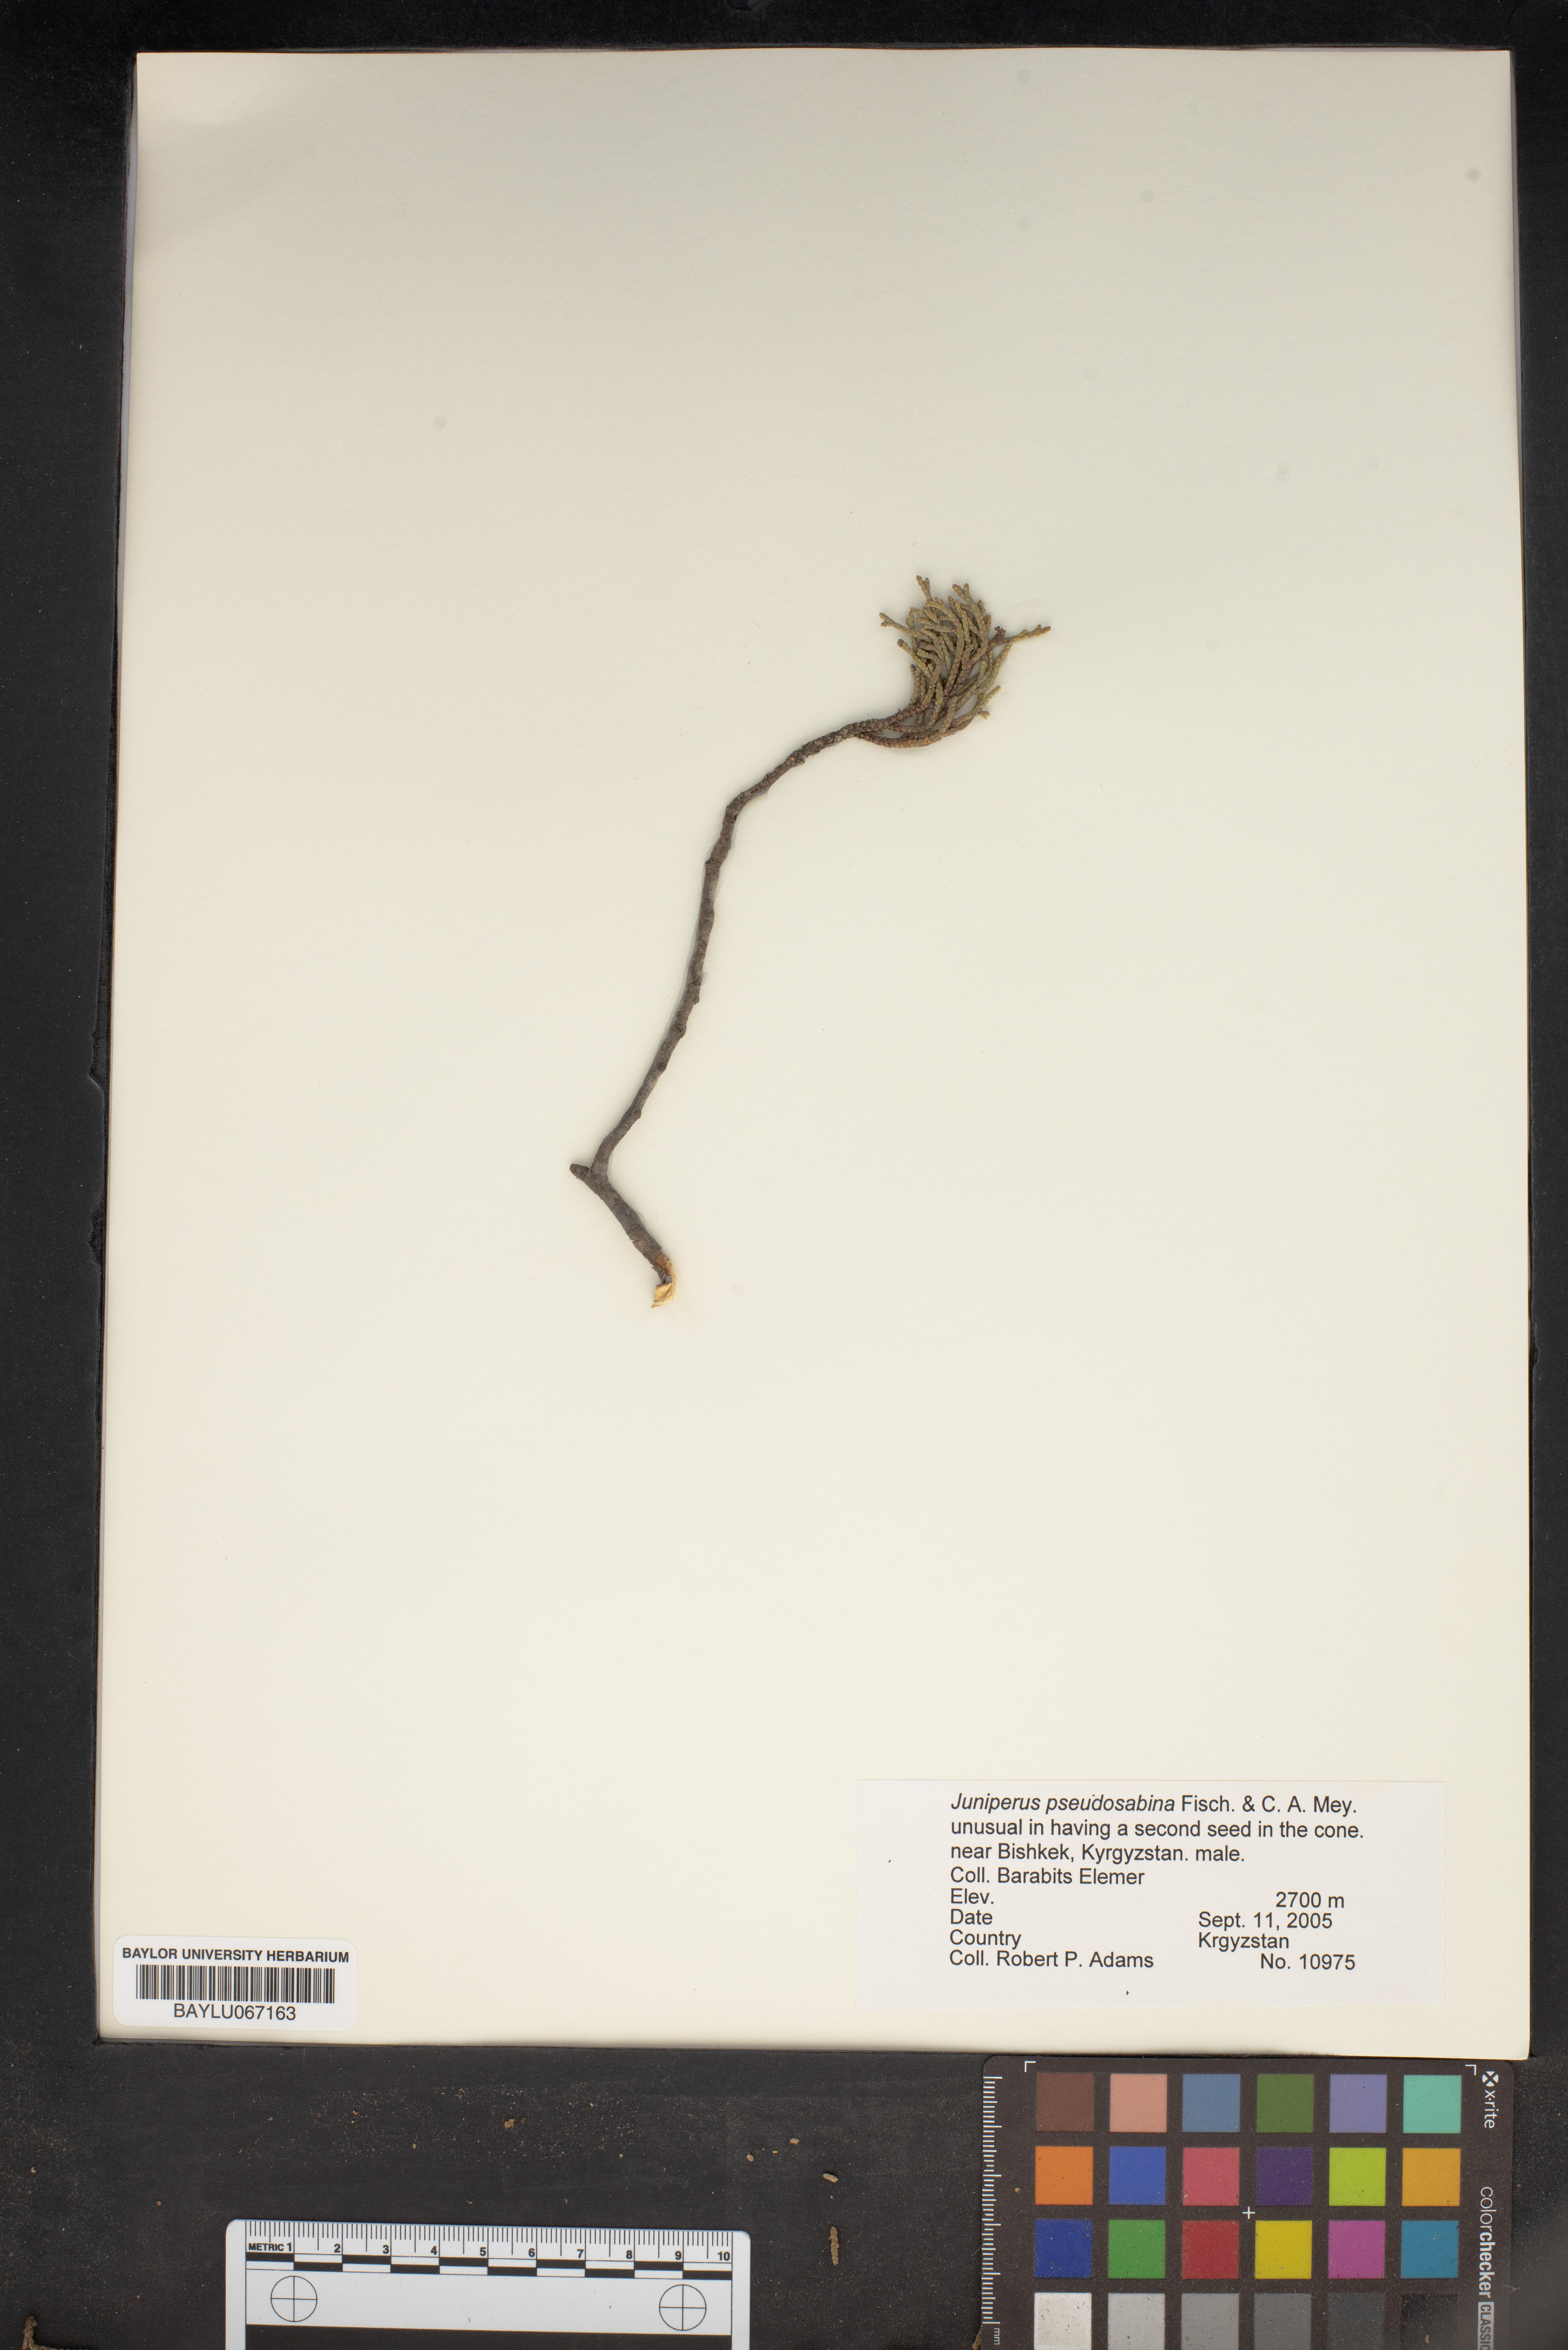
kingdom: Plantae
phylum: Tracheophyta
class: Pinopsida
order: Pinales
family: Cupressaceae
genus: Juniperus
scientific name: Juniperus pseudosabina
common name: Turkestan juniper
